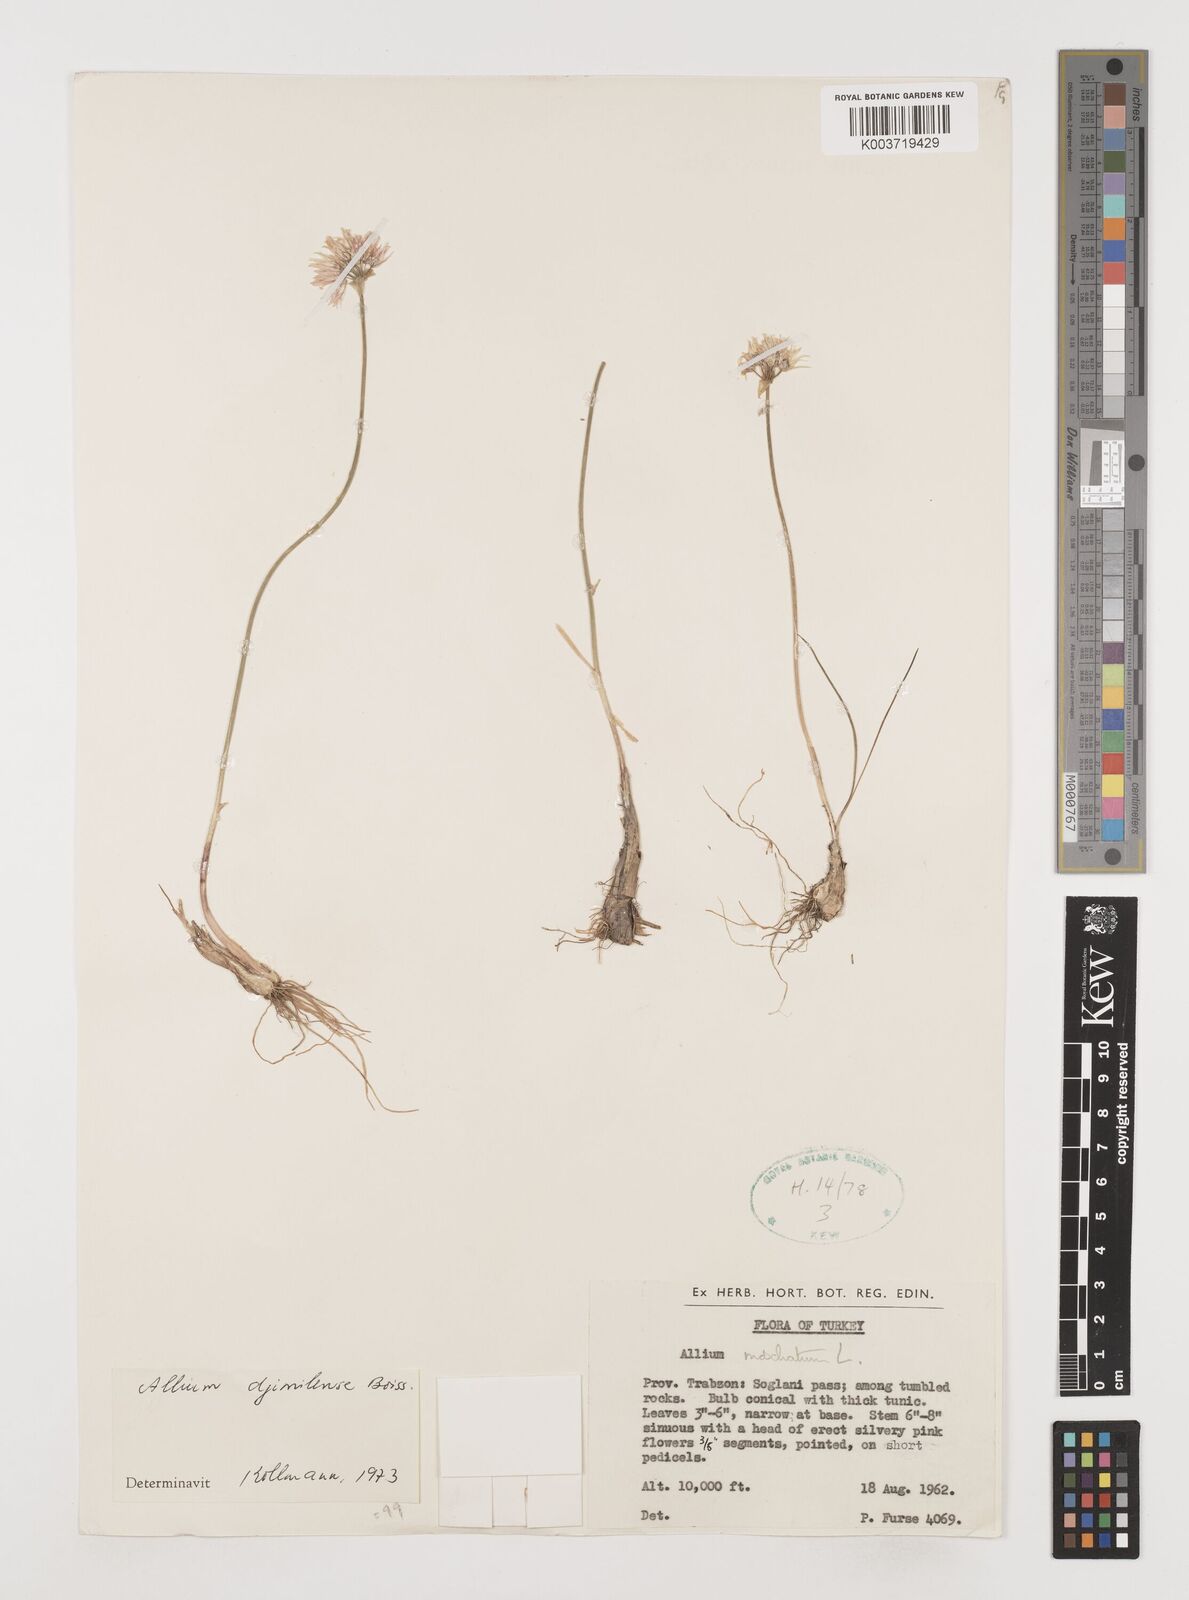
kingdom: Plantae
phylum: Tracheophyta
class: Liliopsida
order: Asparagales
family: Amaryllidaceae
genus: Allium
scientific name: Allium djimilense
